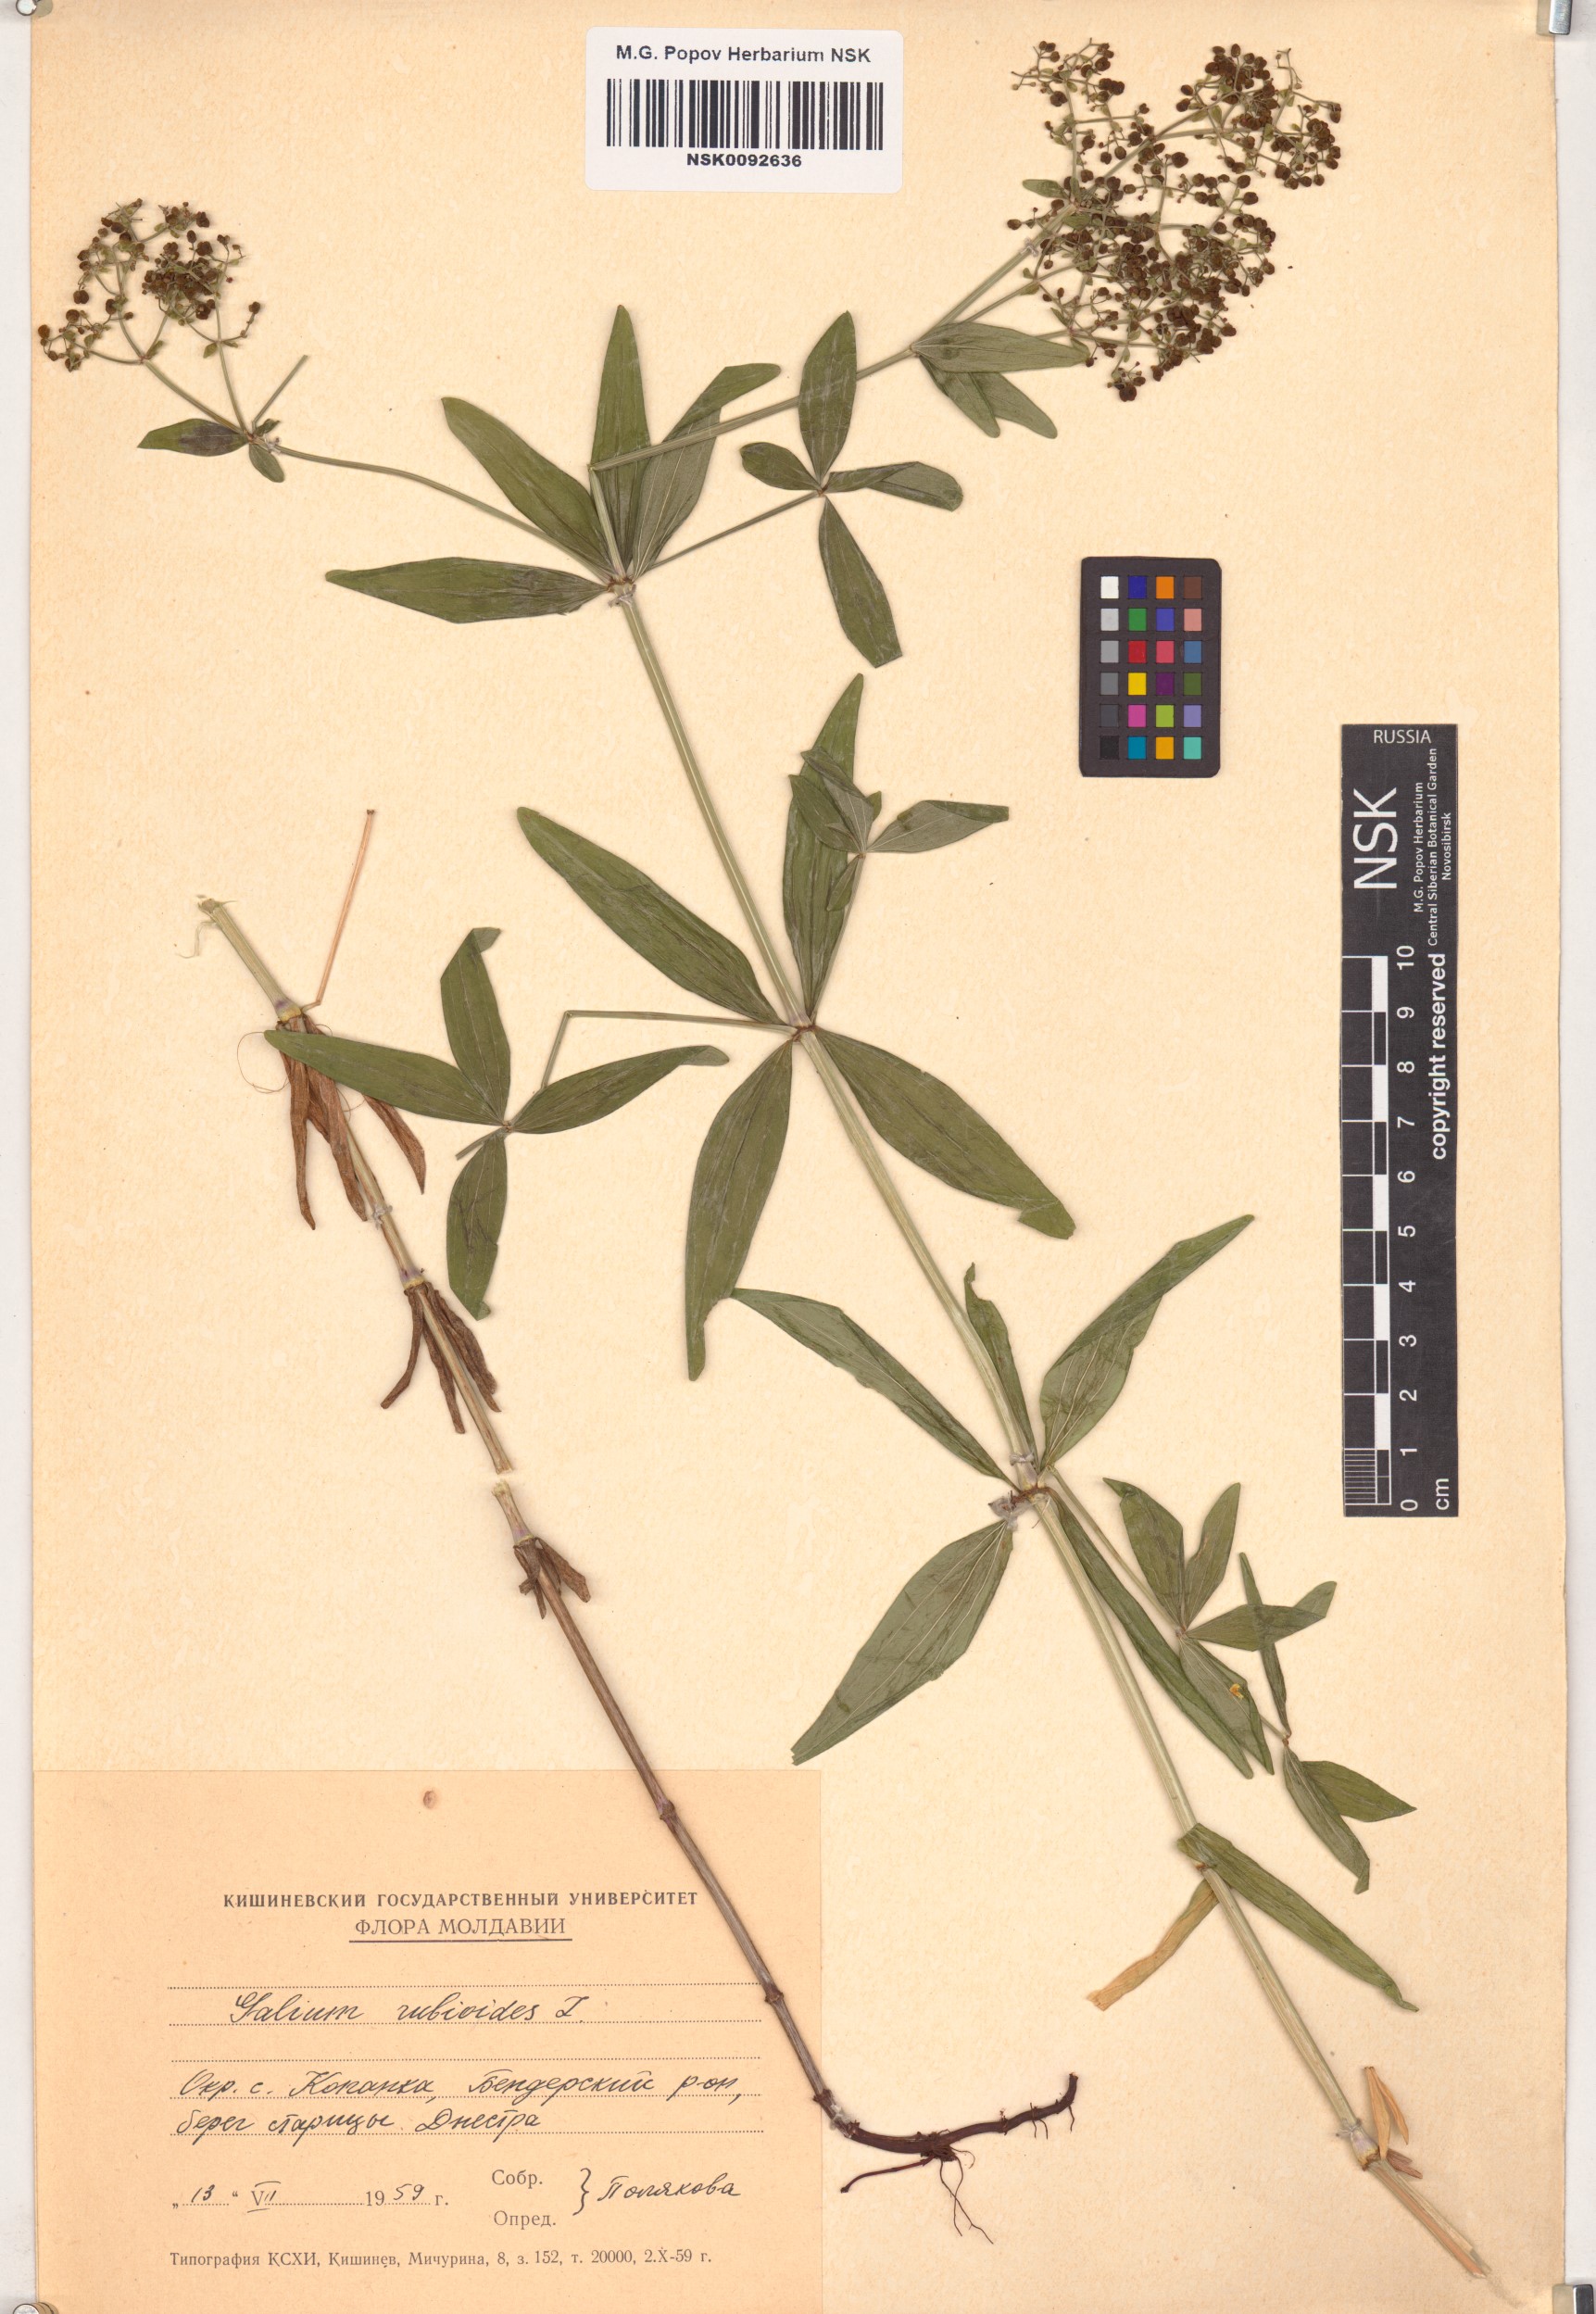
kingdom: Plantae
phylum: Tracheophyta
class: Magnoliopsida
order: Gentianales
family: Rubiaceae
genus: Galium
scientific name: Galium rubioides
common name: European bedstraw
